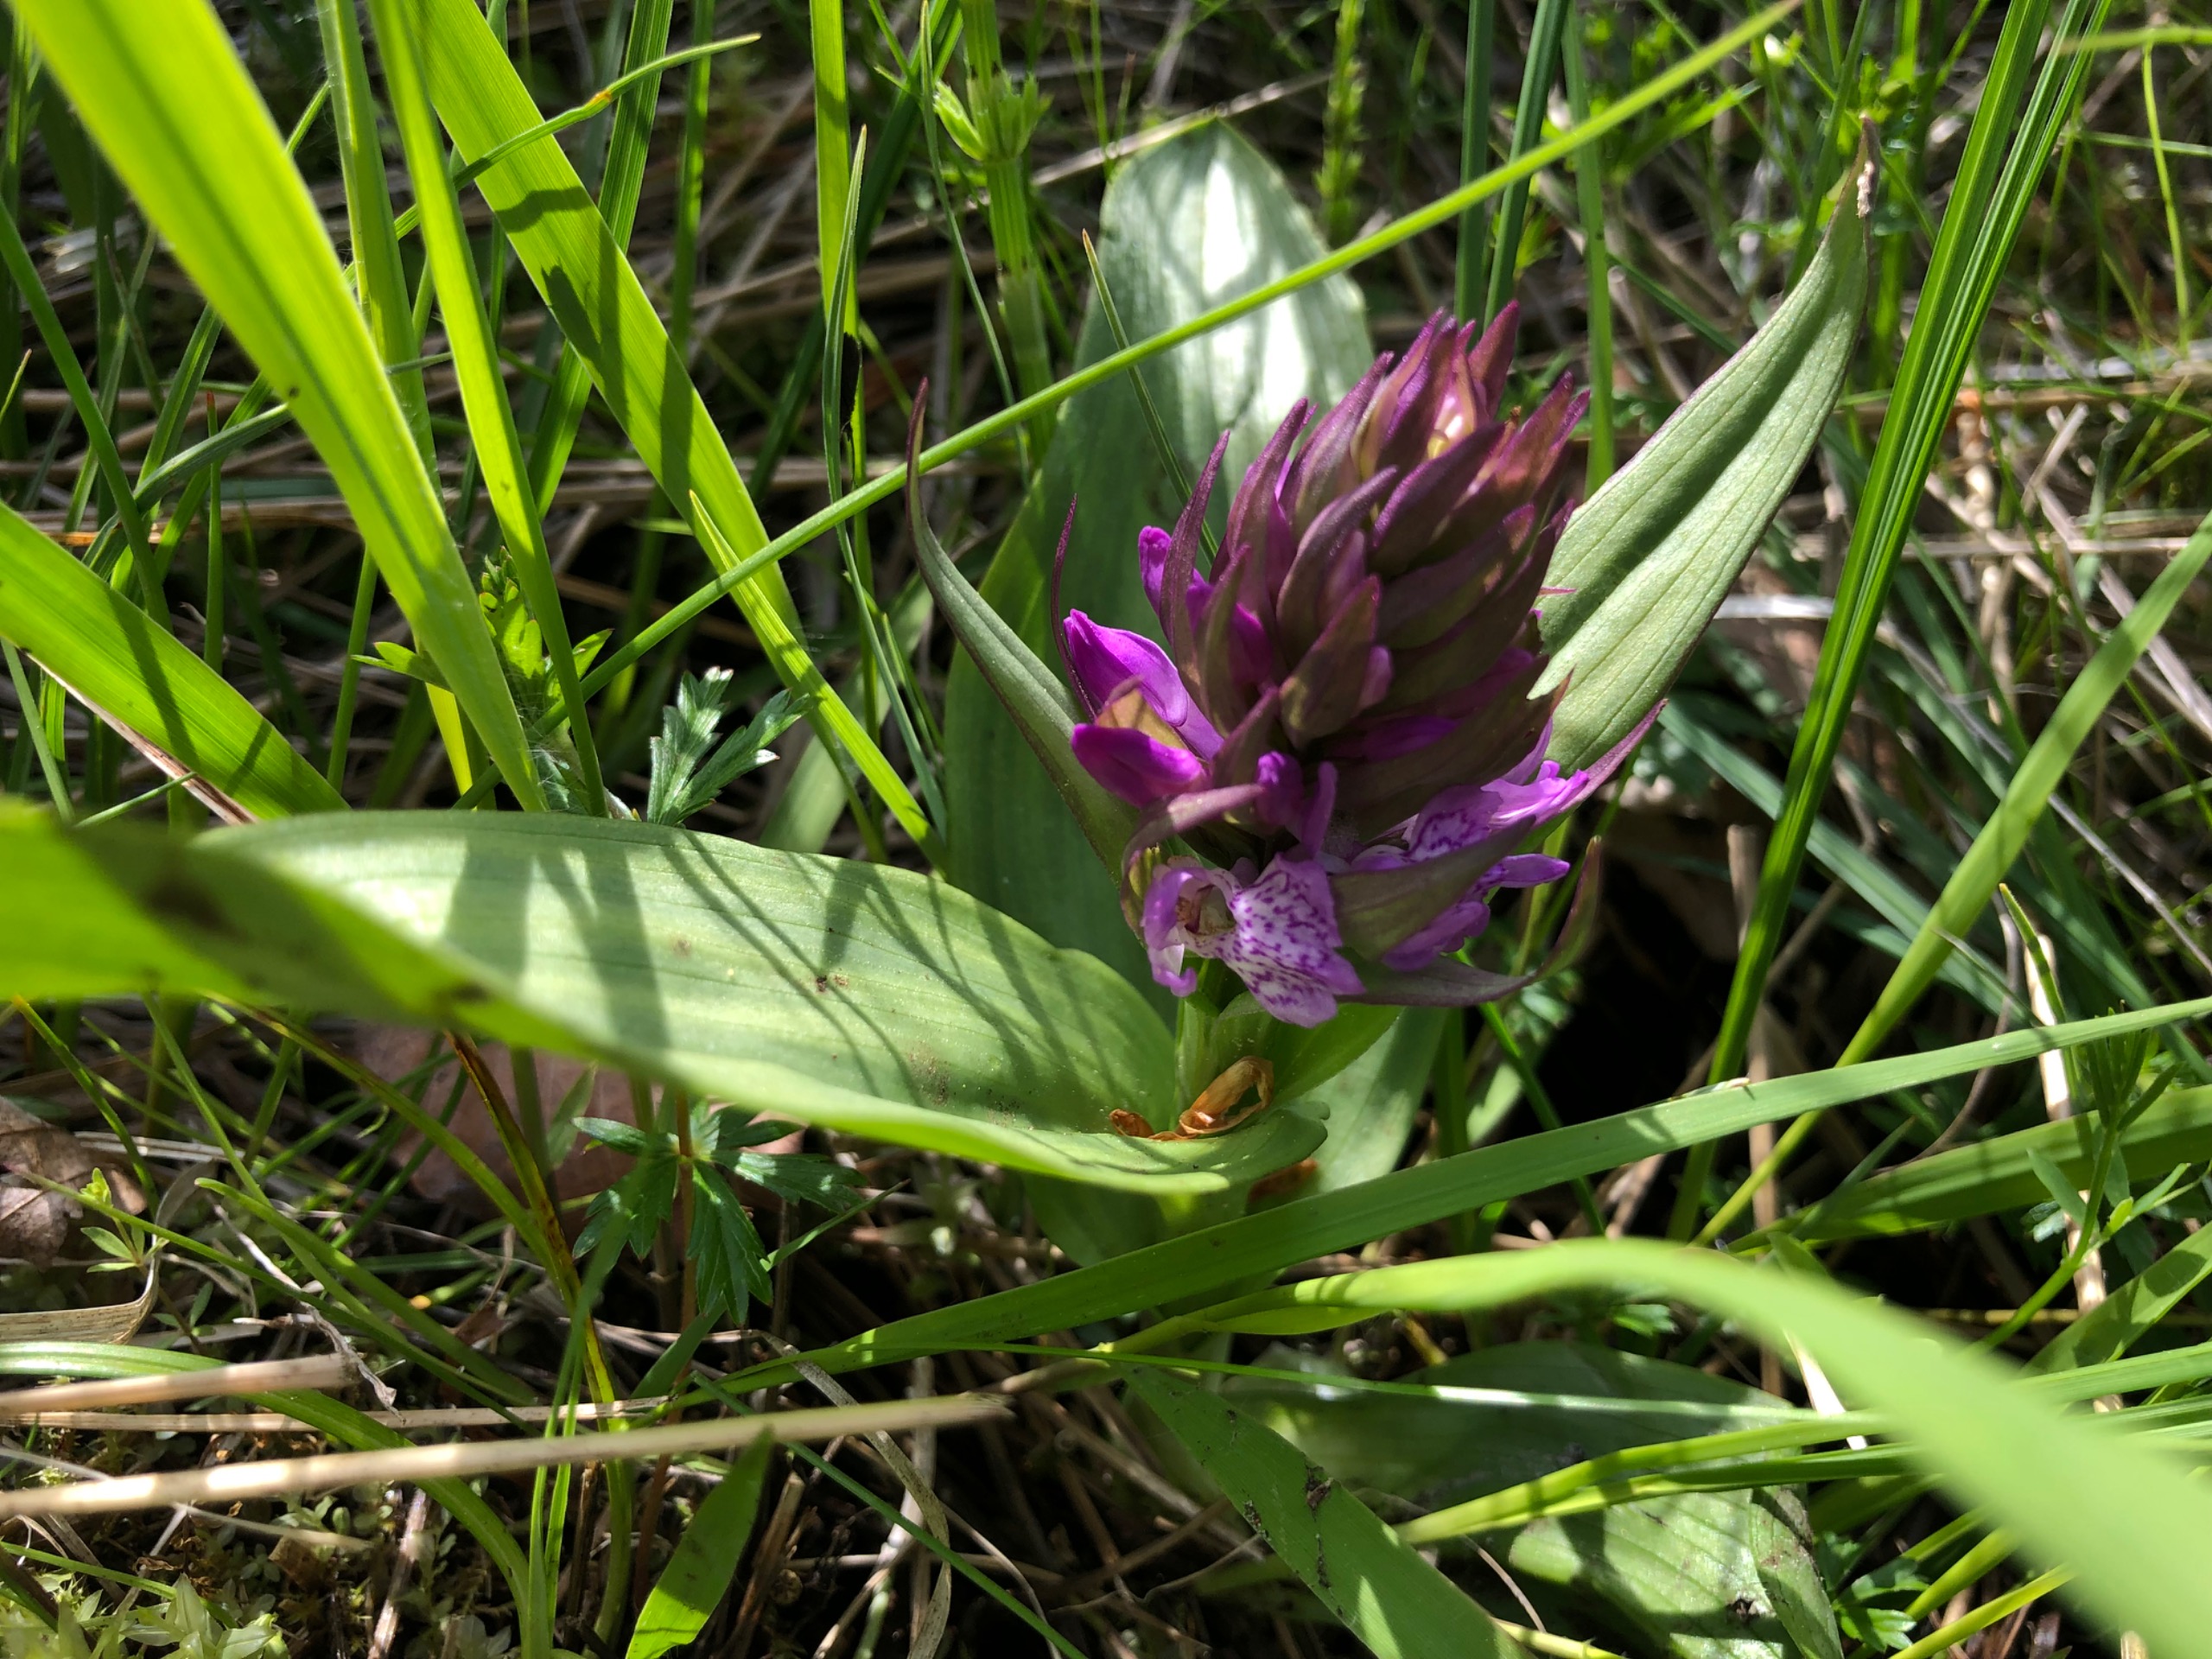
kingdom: Plantae
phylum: Tracheophyta
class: Liliopsida
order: Asparagales
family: Orchidaceae
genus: Dactylorhiza
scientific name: Dactylorhiza majalis
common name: Maj-gøgeurt
